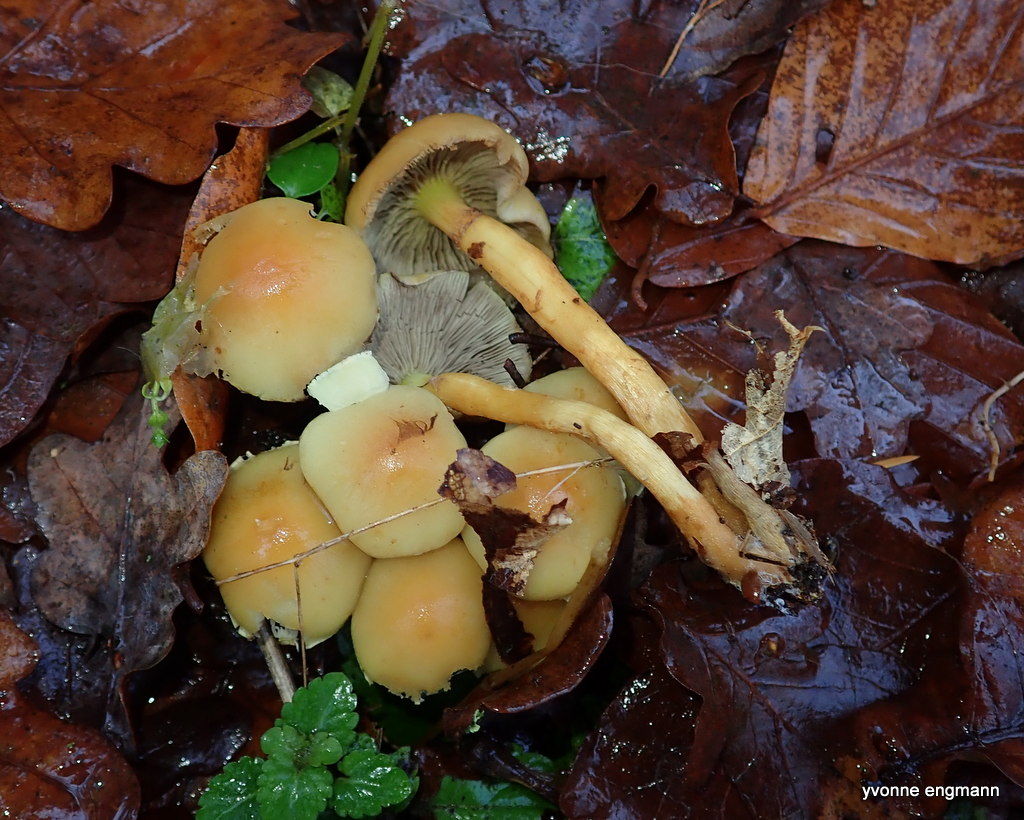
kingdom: Fungi
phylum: Basidiomycota
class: Agaricomycetes
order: Agaricales
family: Strophariaceae
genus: Hypholoma
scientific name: Hypholoma fasciculare
